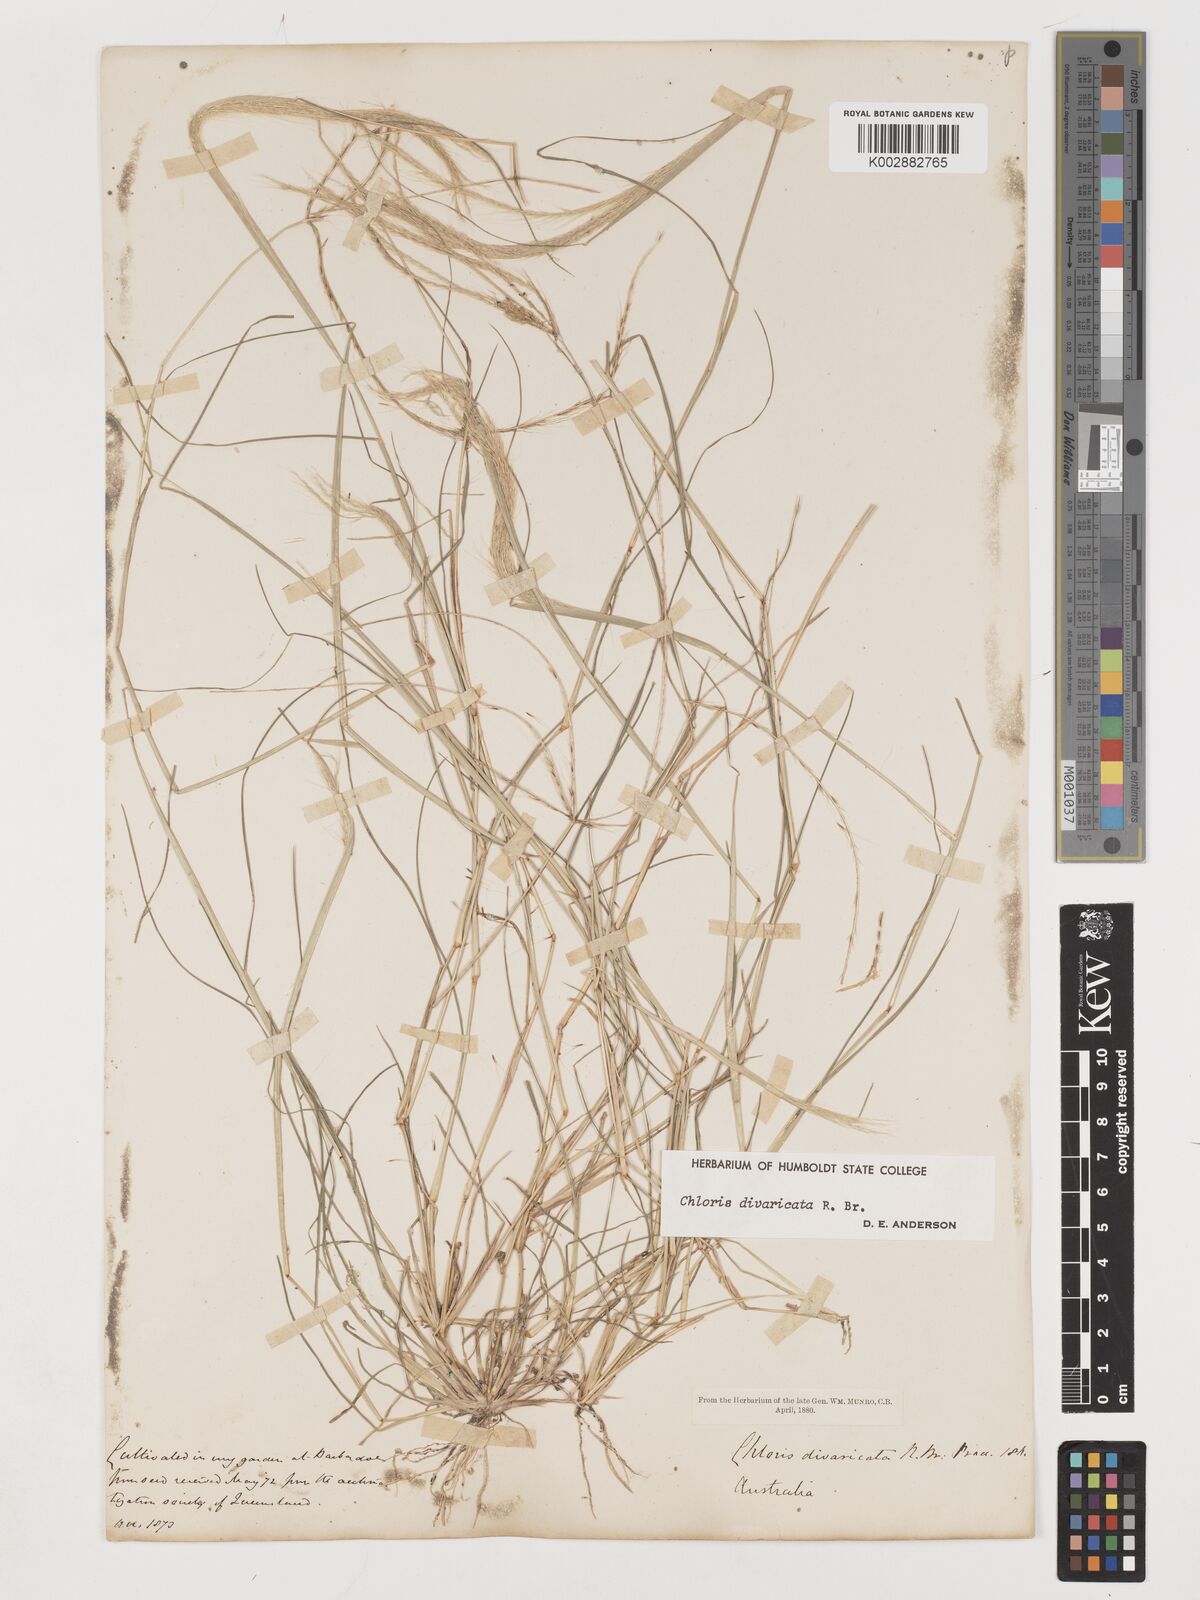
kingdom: Plantae
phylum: Tracheophyta
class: Liliopsida
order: Poales
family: Poaceae
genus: Chloris
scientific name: Chloris divaricata
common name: Spreading windmill grass
